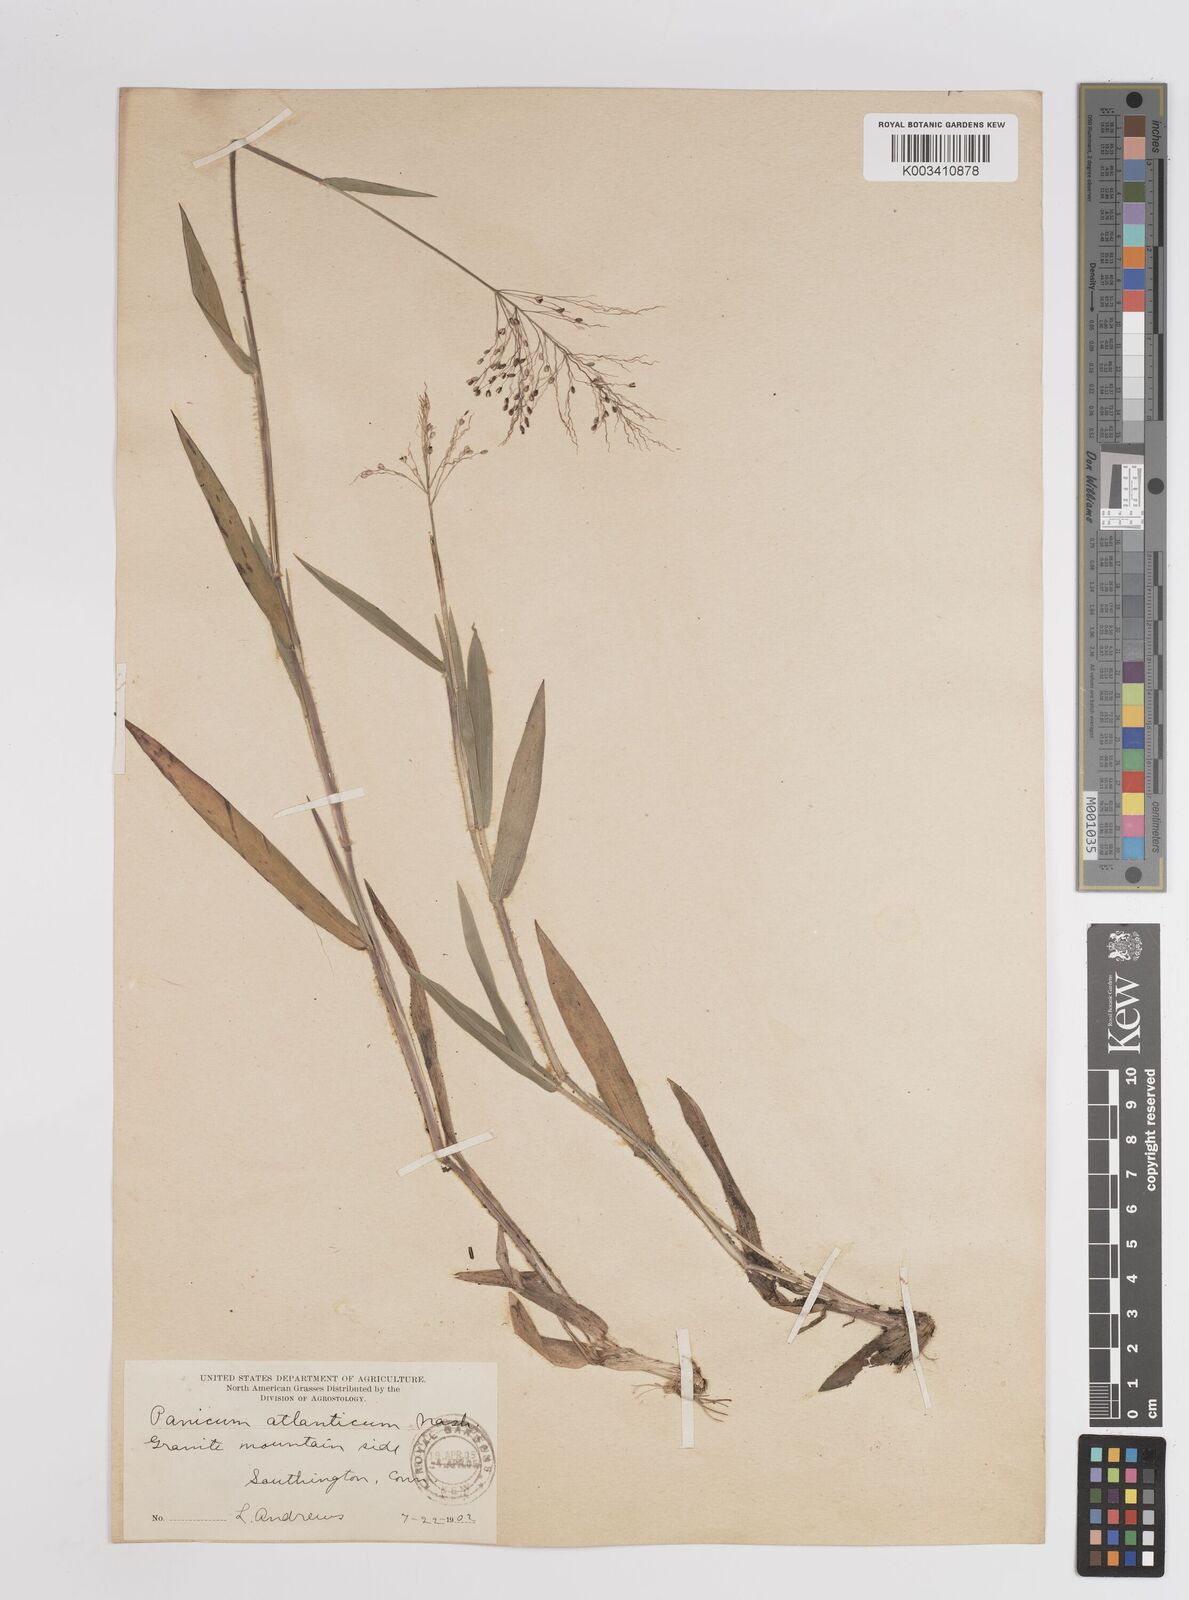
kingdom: Plantae
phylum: Tracheophyta
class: Liliopsida
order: Poales
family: Poaceae
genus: Dichanthelium
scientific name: Dichanthelium villosissimum
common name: White-haired panicgrass
